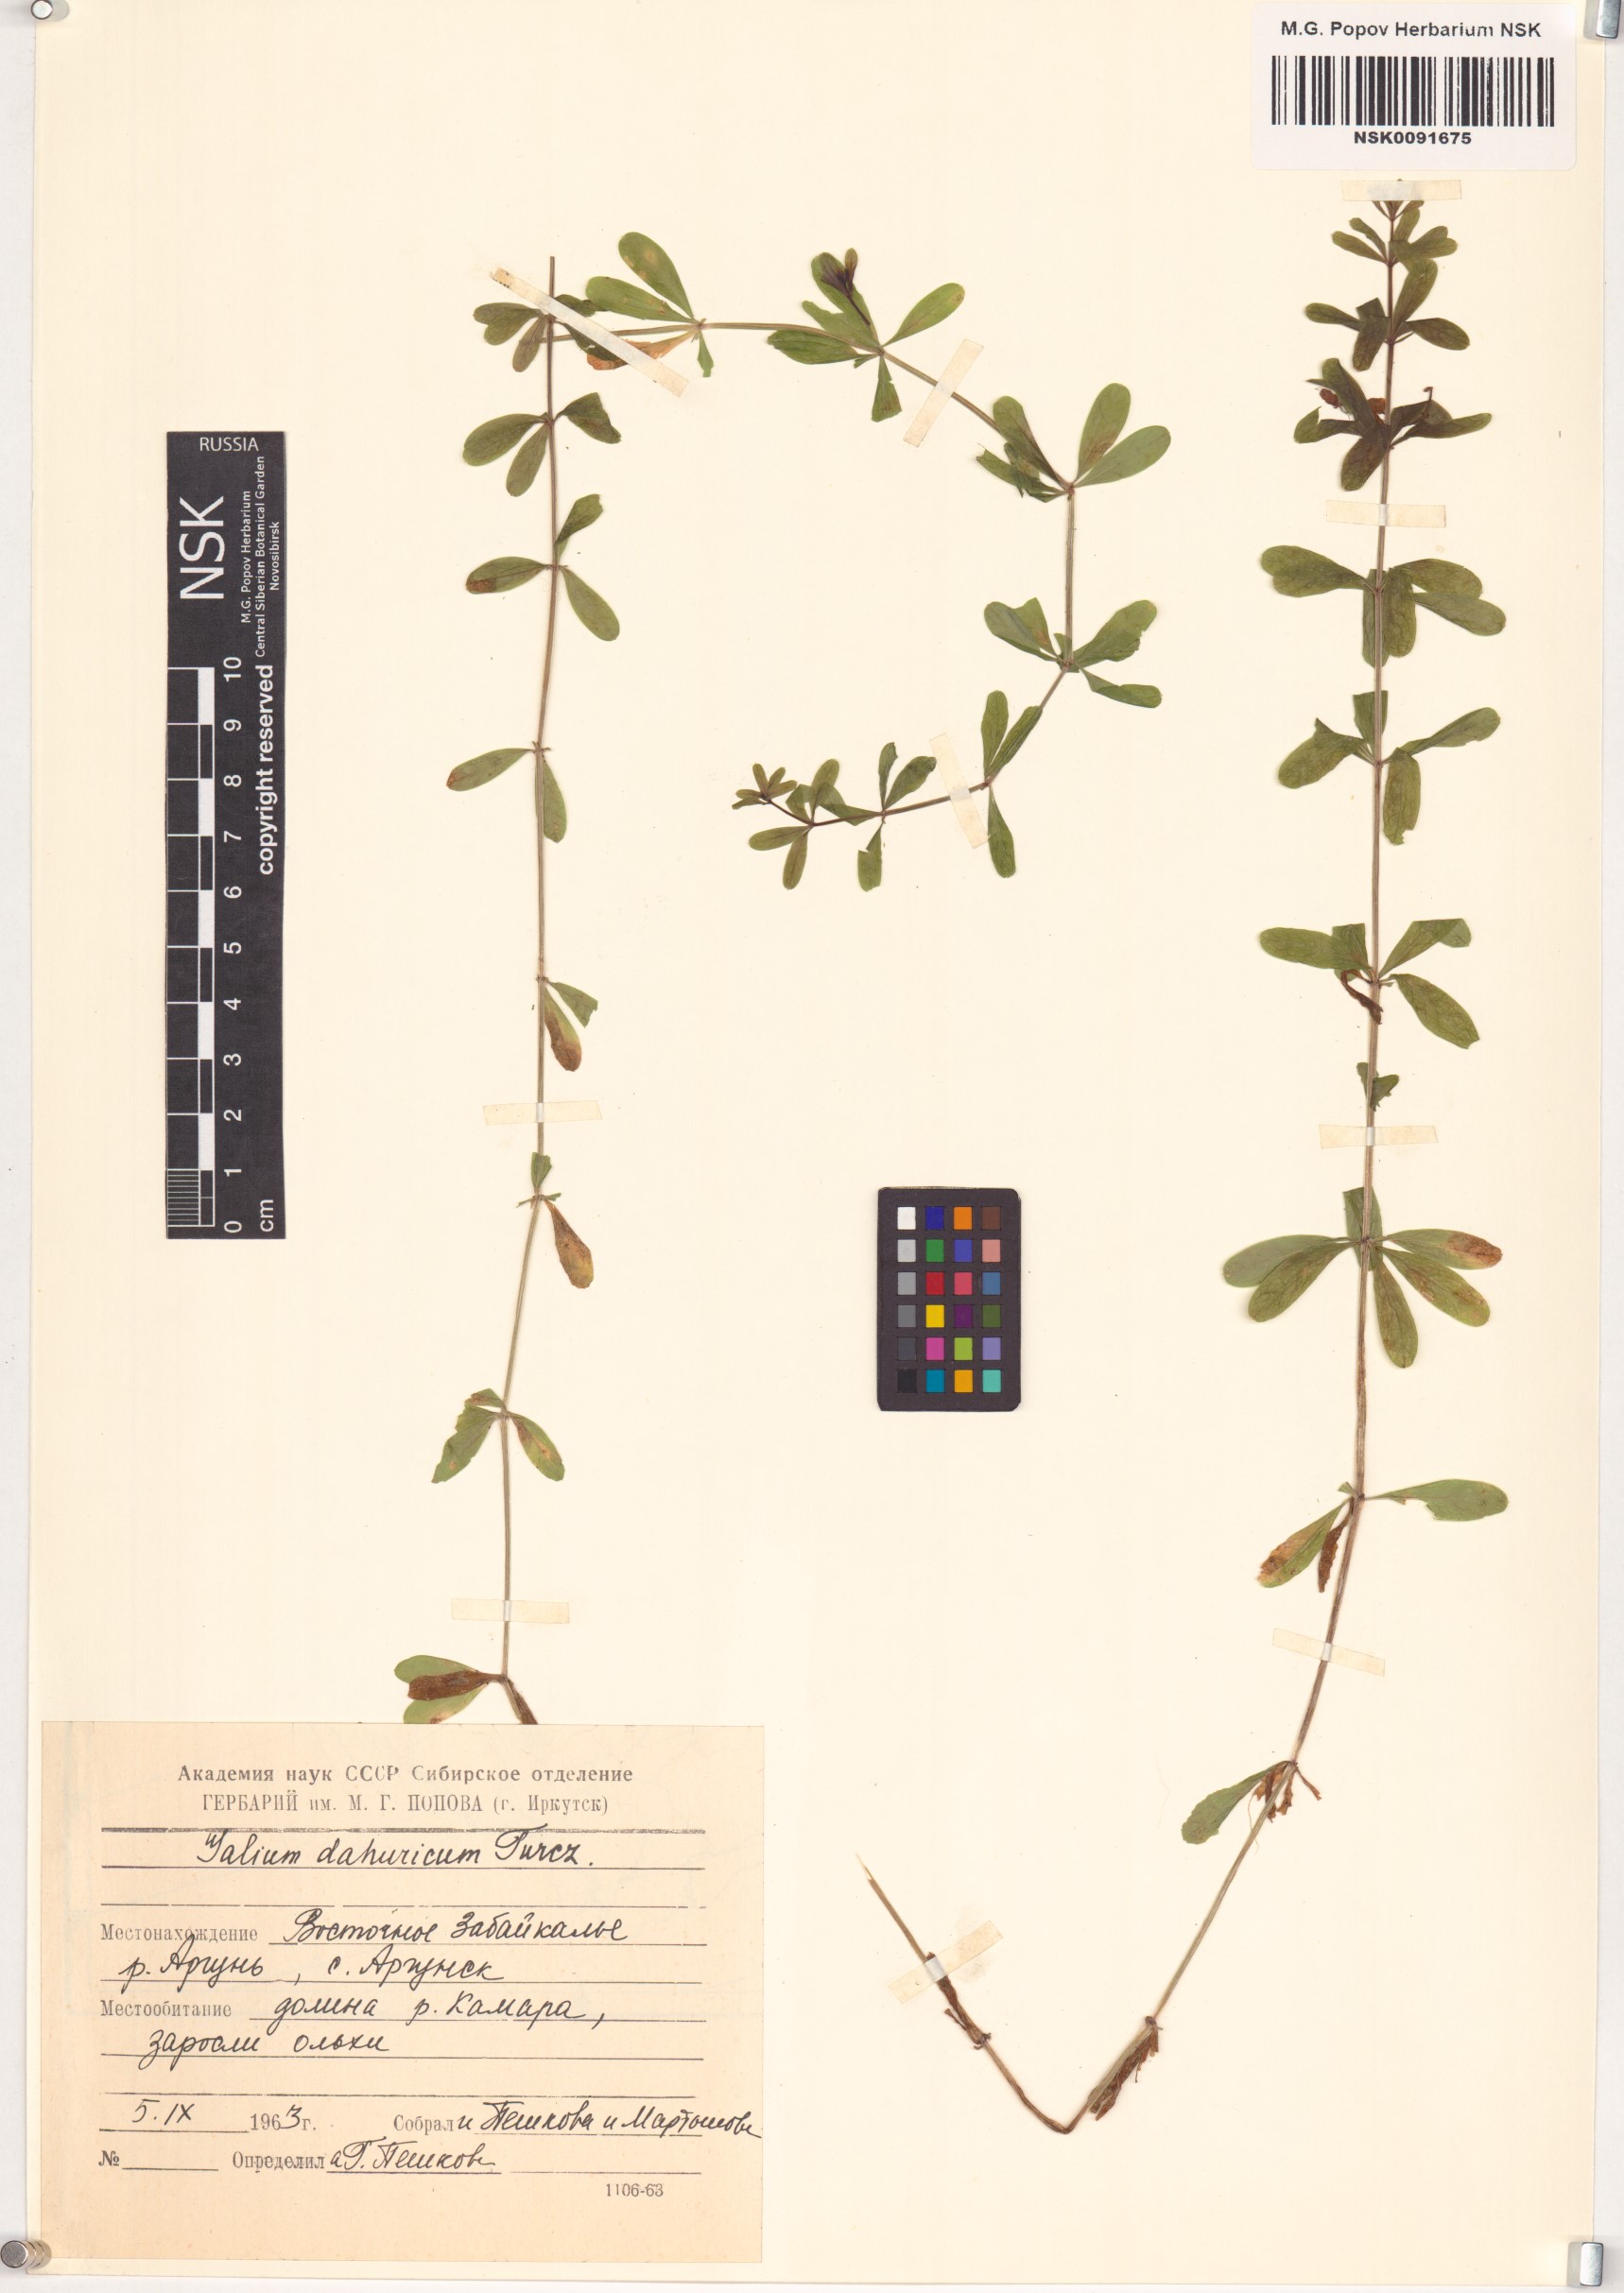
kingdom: Plantae
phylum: Tracheophyta
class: Magnoliopsida
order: Gentianales
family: Rubiaceae
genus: Galium
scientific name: Galium dahuricum
